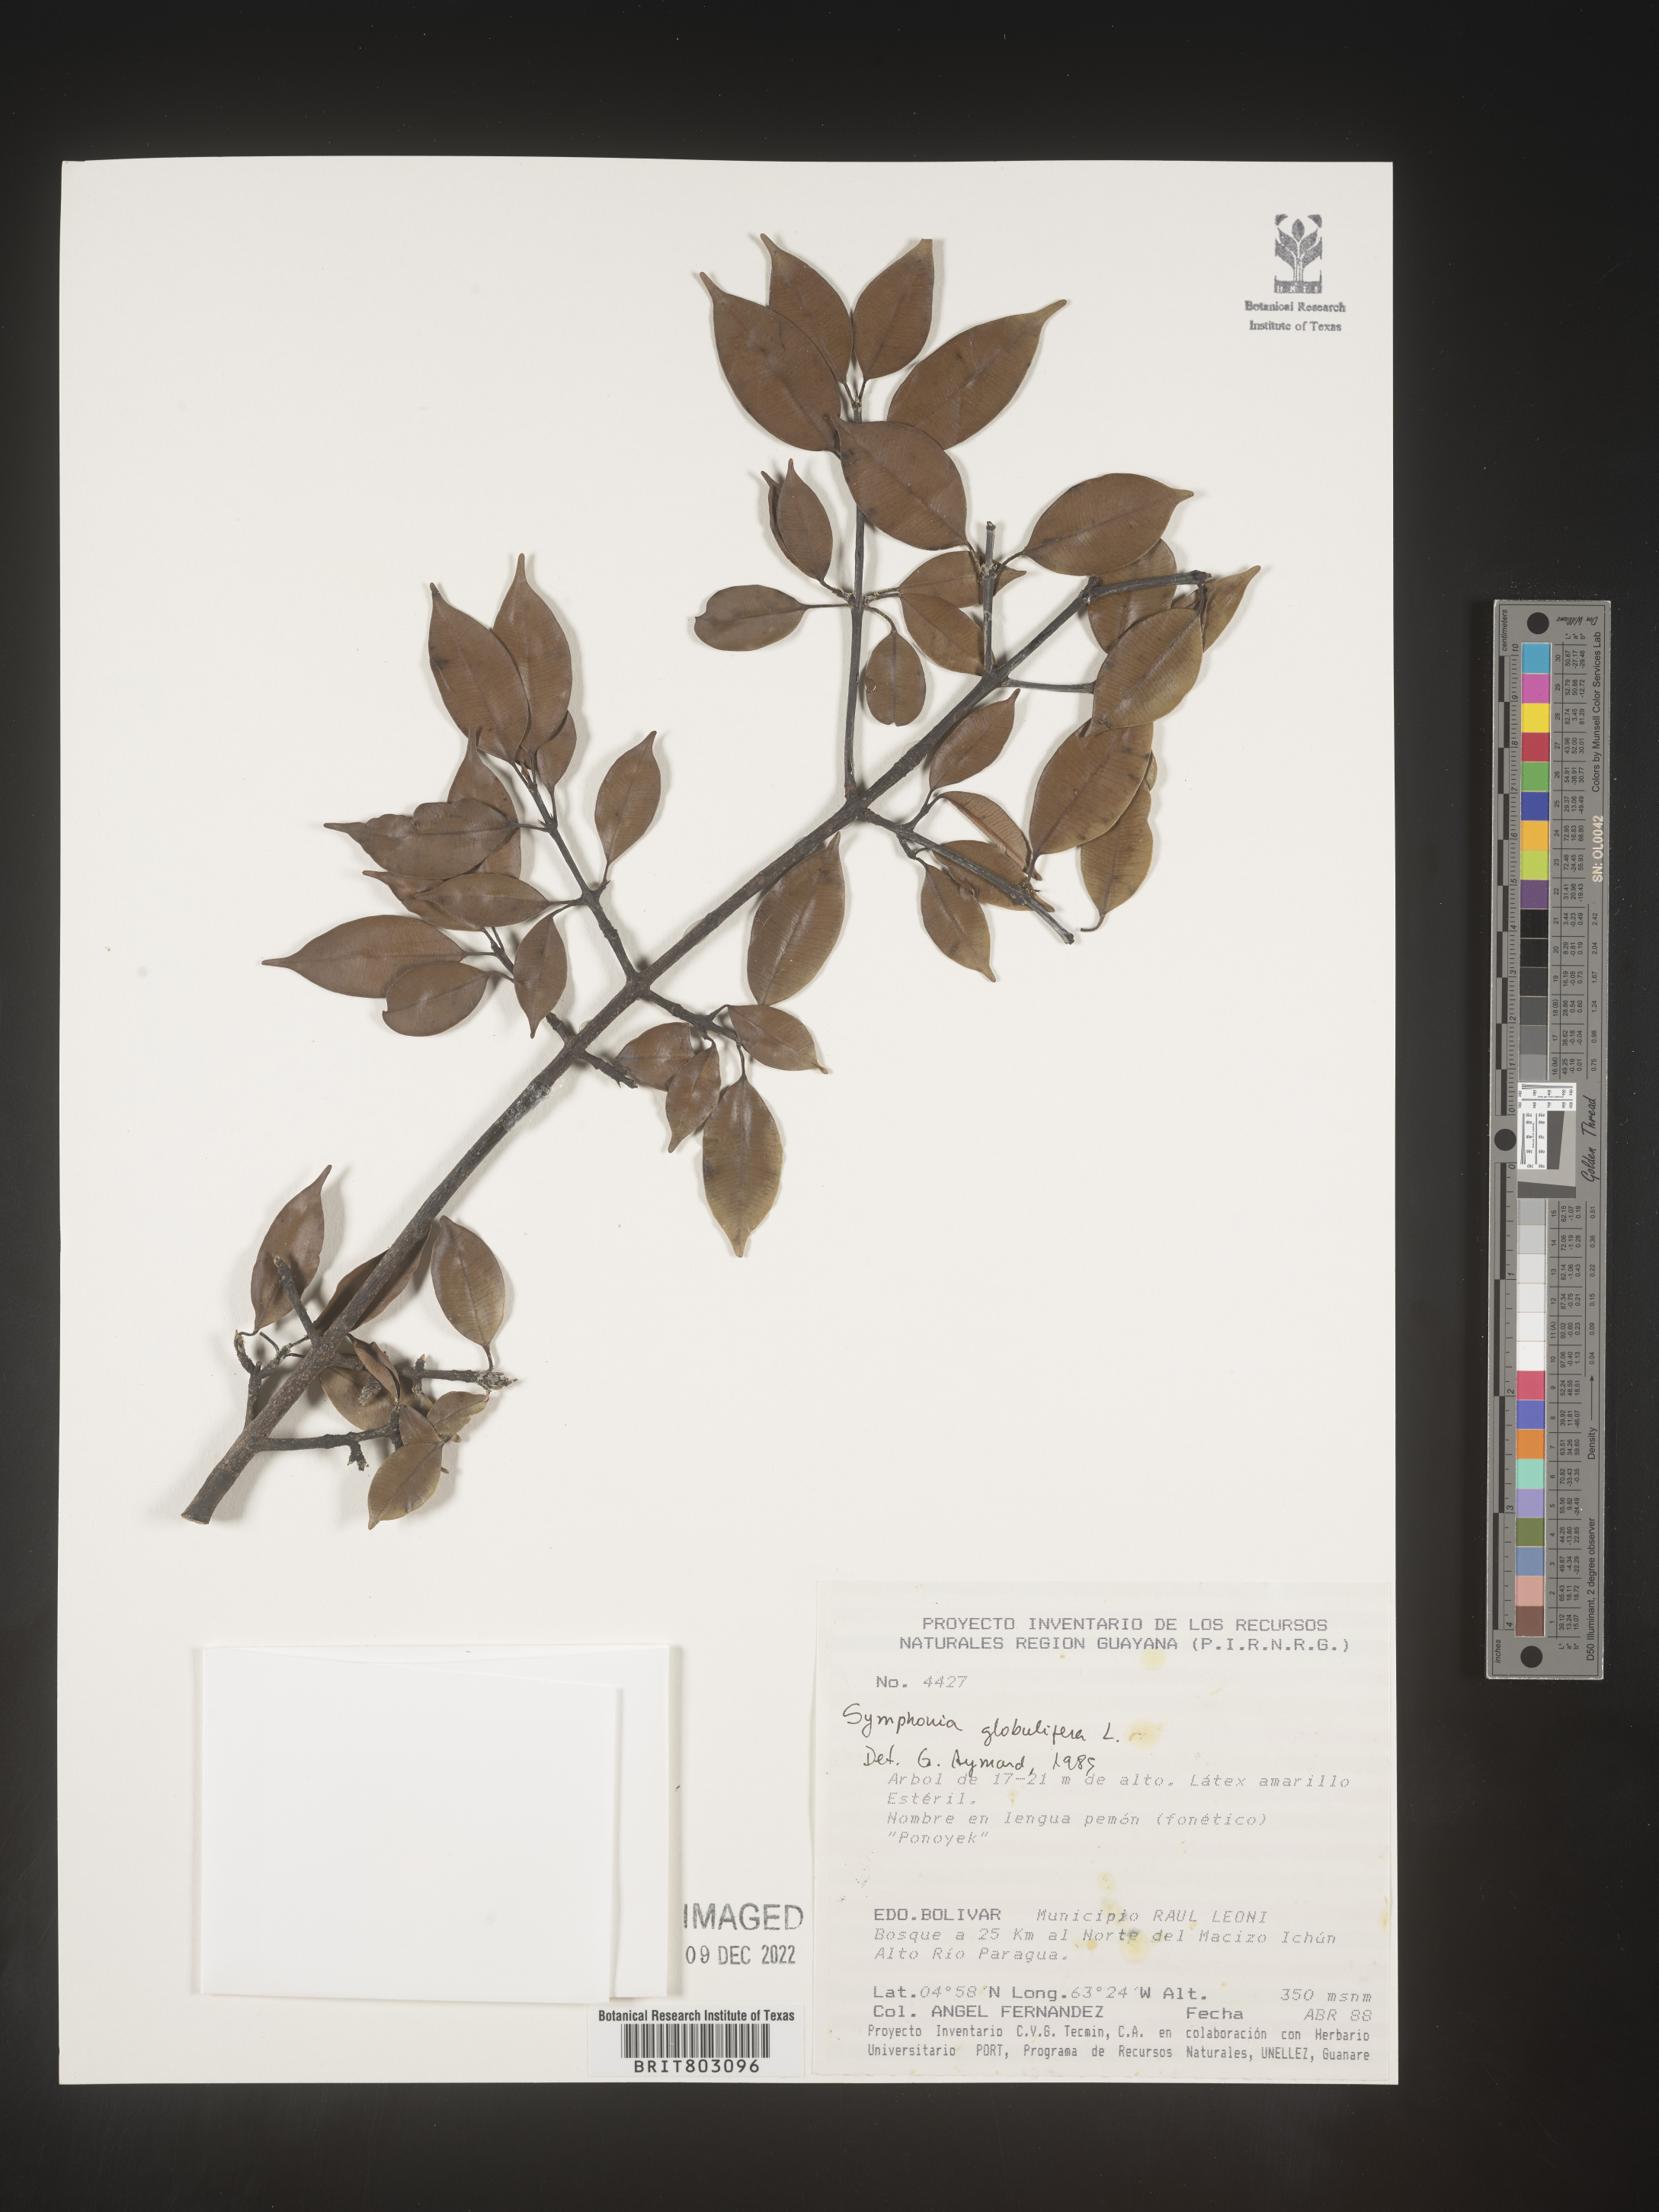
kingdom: Plantae
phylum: Tracheophyta
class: Magnoliopsida
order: Malpighiales
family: Clusiaceae
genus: Symphonia
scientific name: Symphonia
